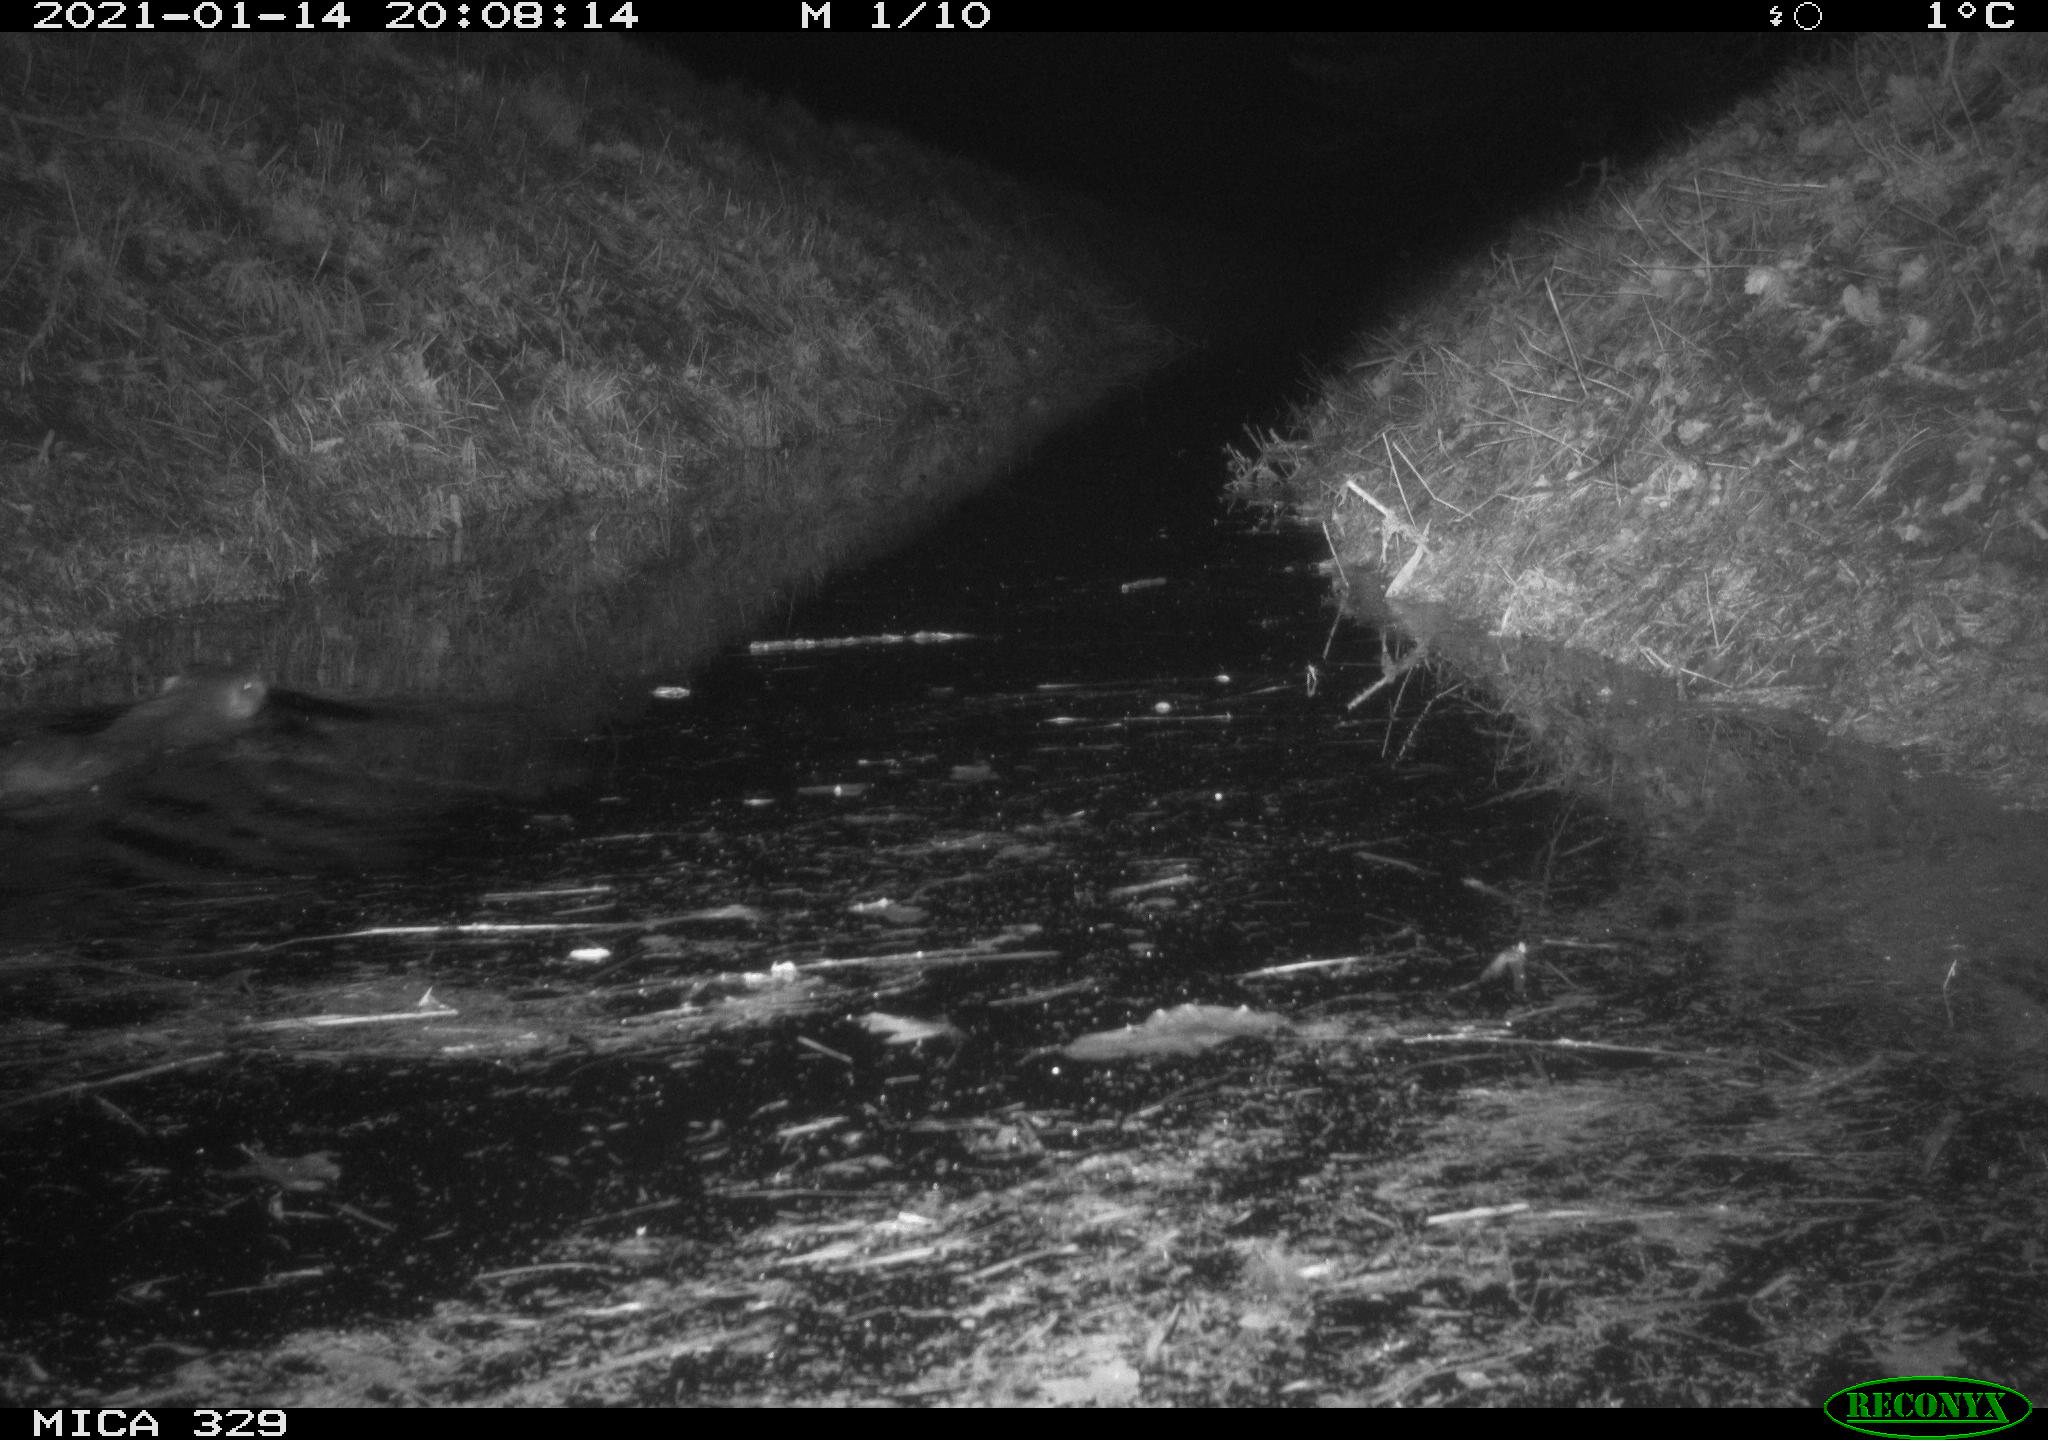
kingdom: Animalia
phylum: Chordata
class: Mammalia
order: Rodentia
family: Myocastoridae
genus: Myocastor
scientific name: Myocastor coypus
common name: Coypu
